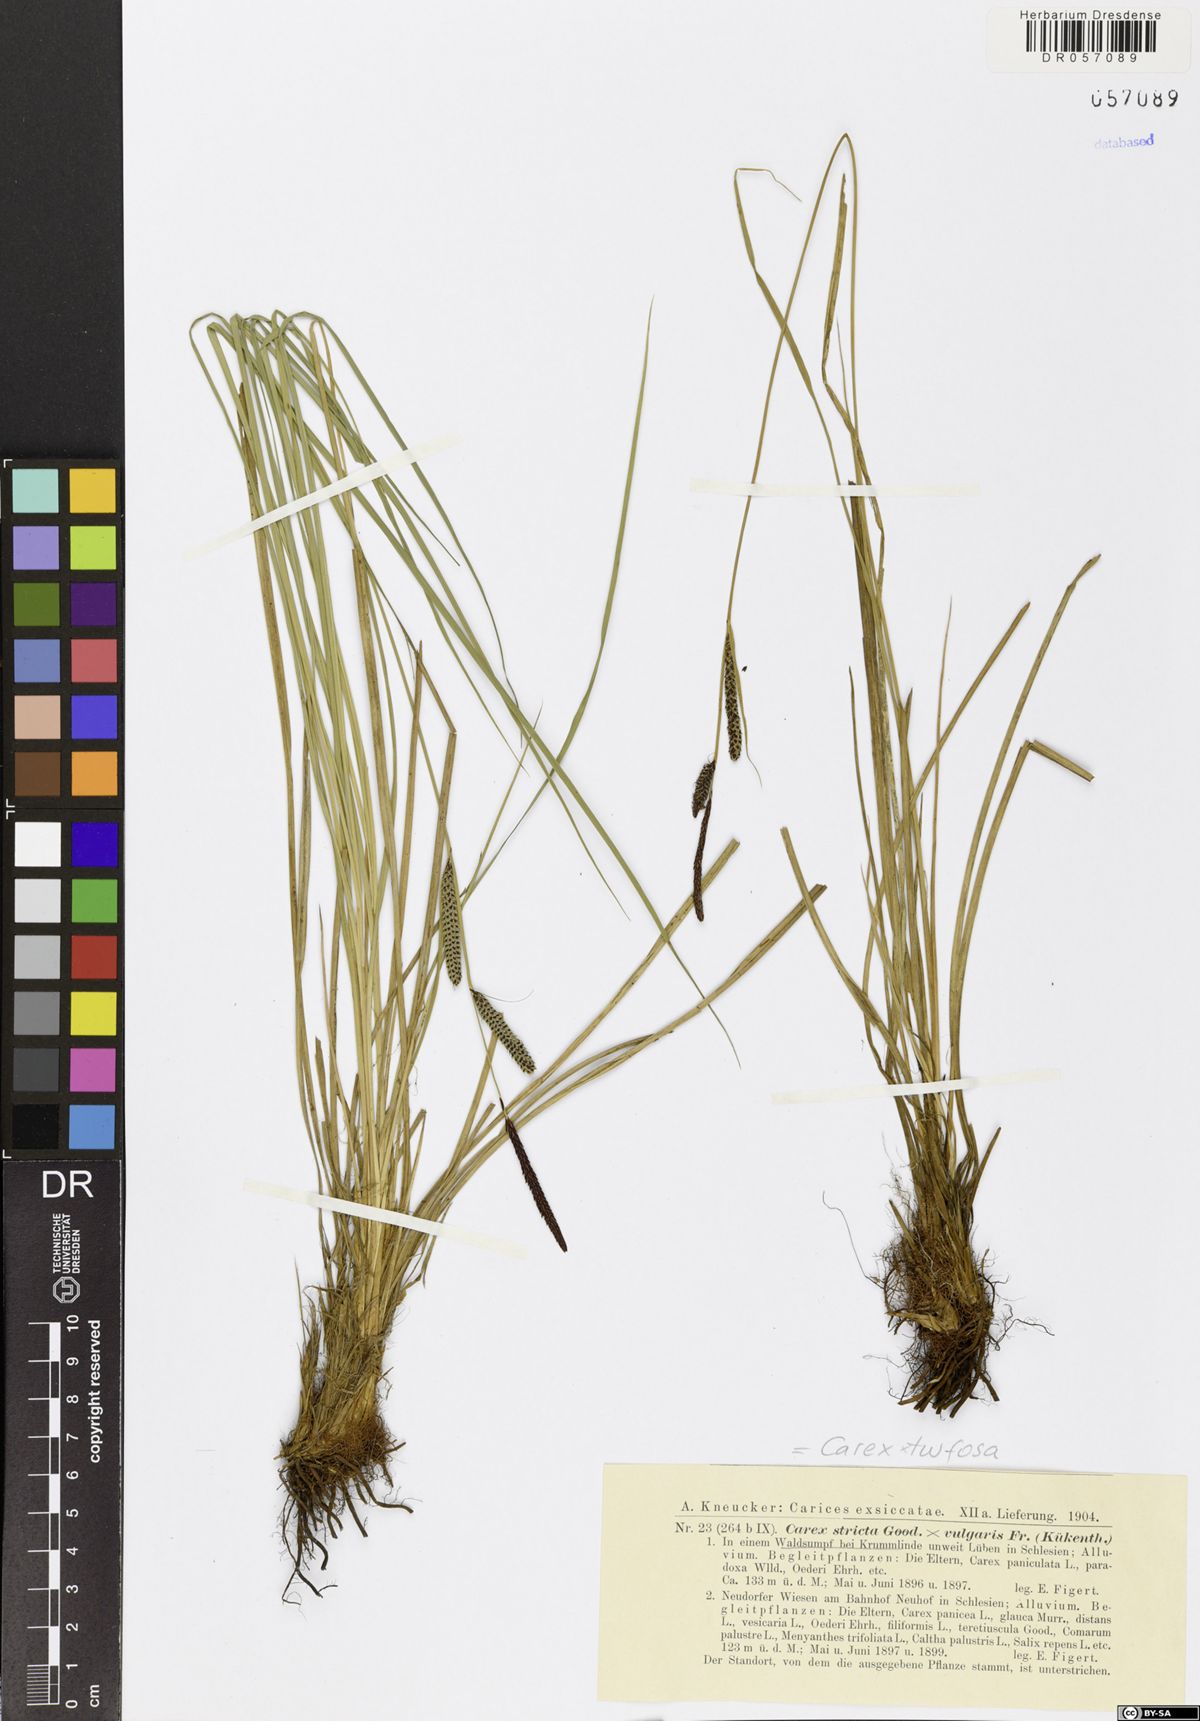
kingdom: Plantae
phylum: Tracheophyta
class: Liliopsida
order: Poales
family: Cyperaceae
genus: Carex
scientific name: Carex turfosa
